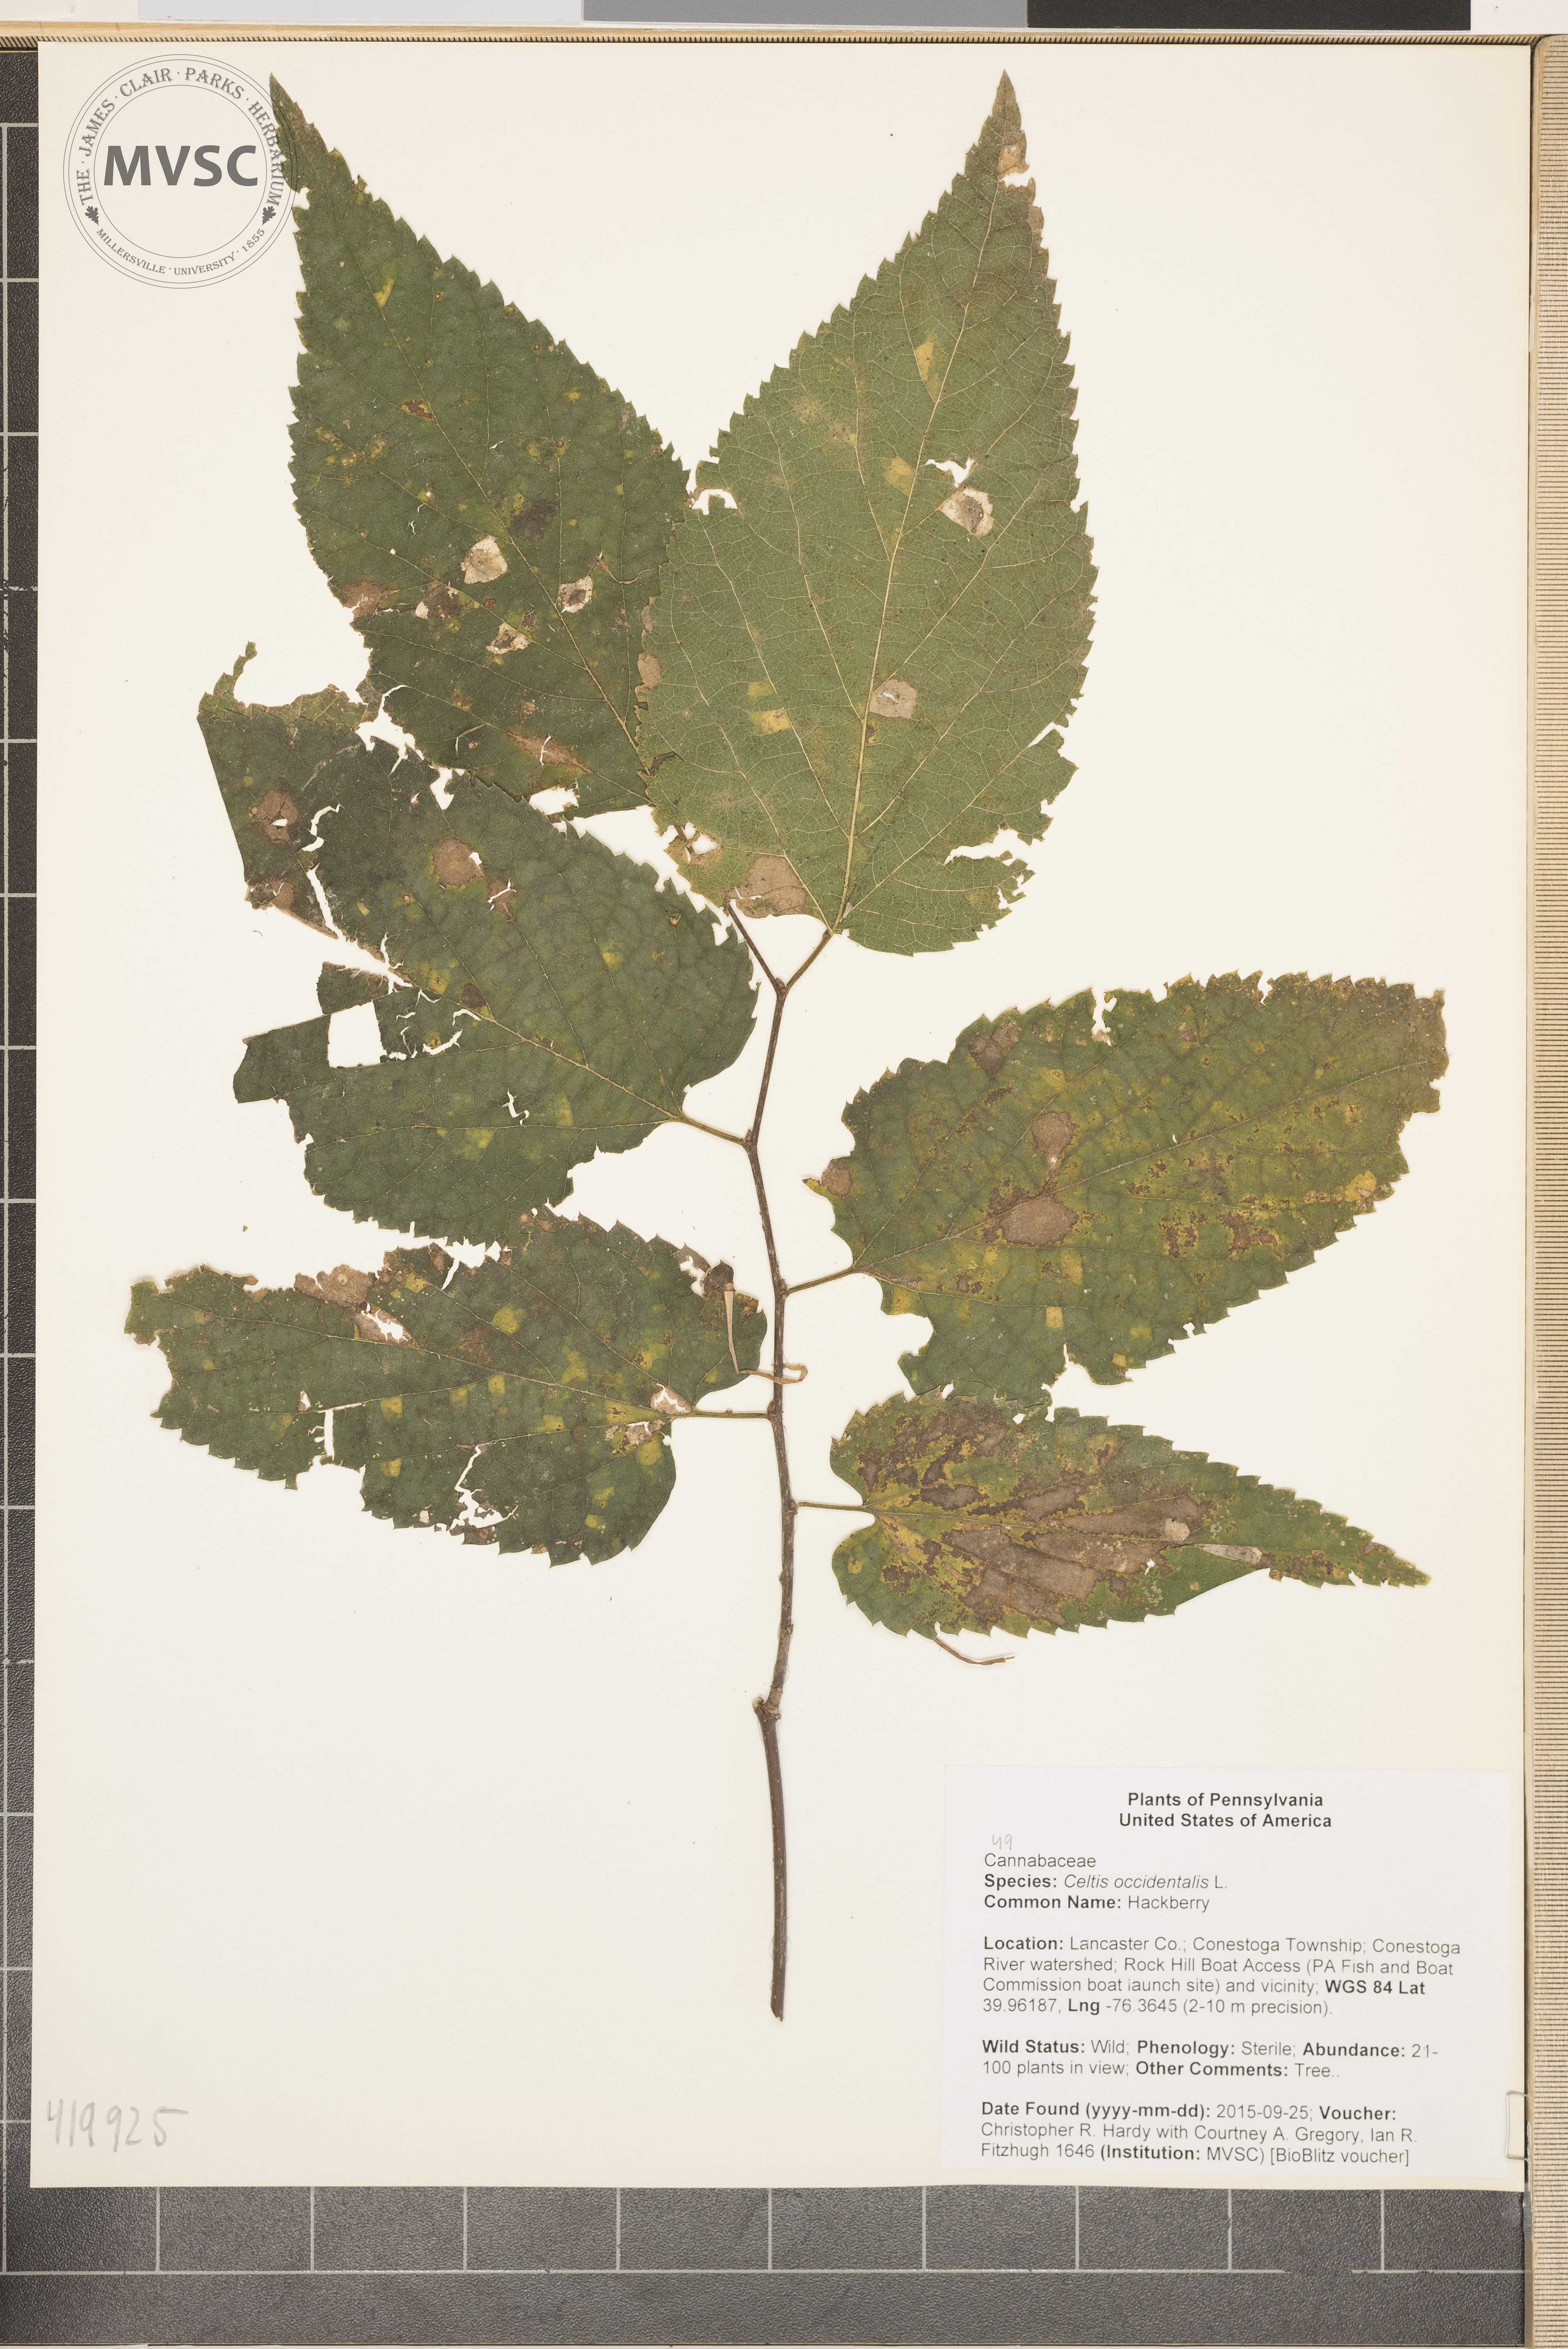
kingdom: Plantae
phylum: Tracheophyta
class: Magnoliopsida
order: Rosales
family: Cannabaceae
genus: Celtis
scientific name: Celtis occidentalis
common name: Hackberry
